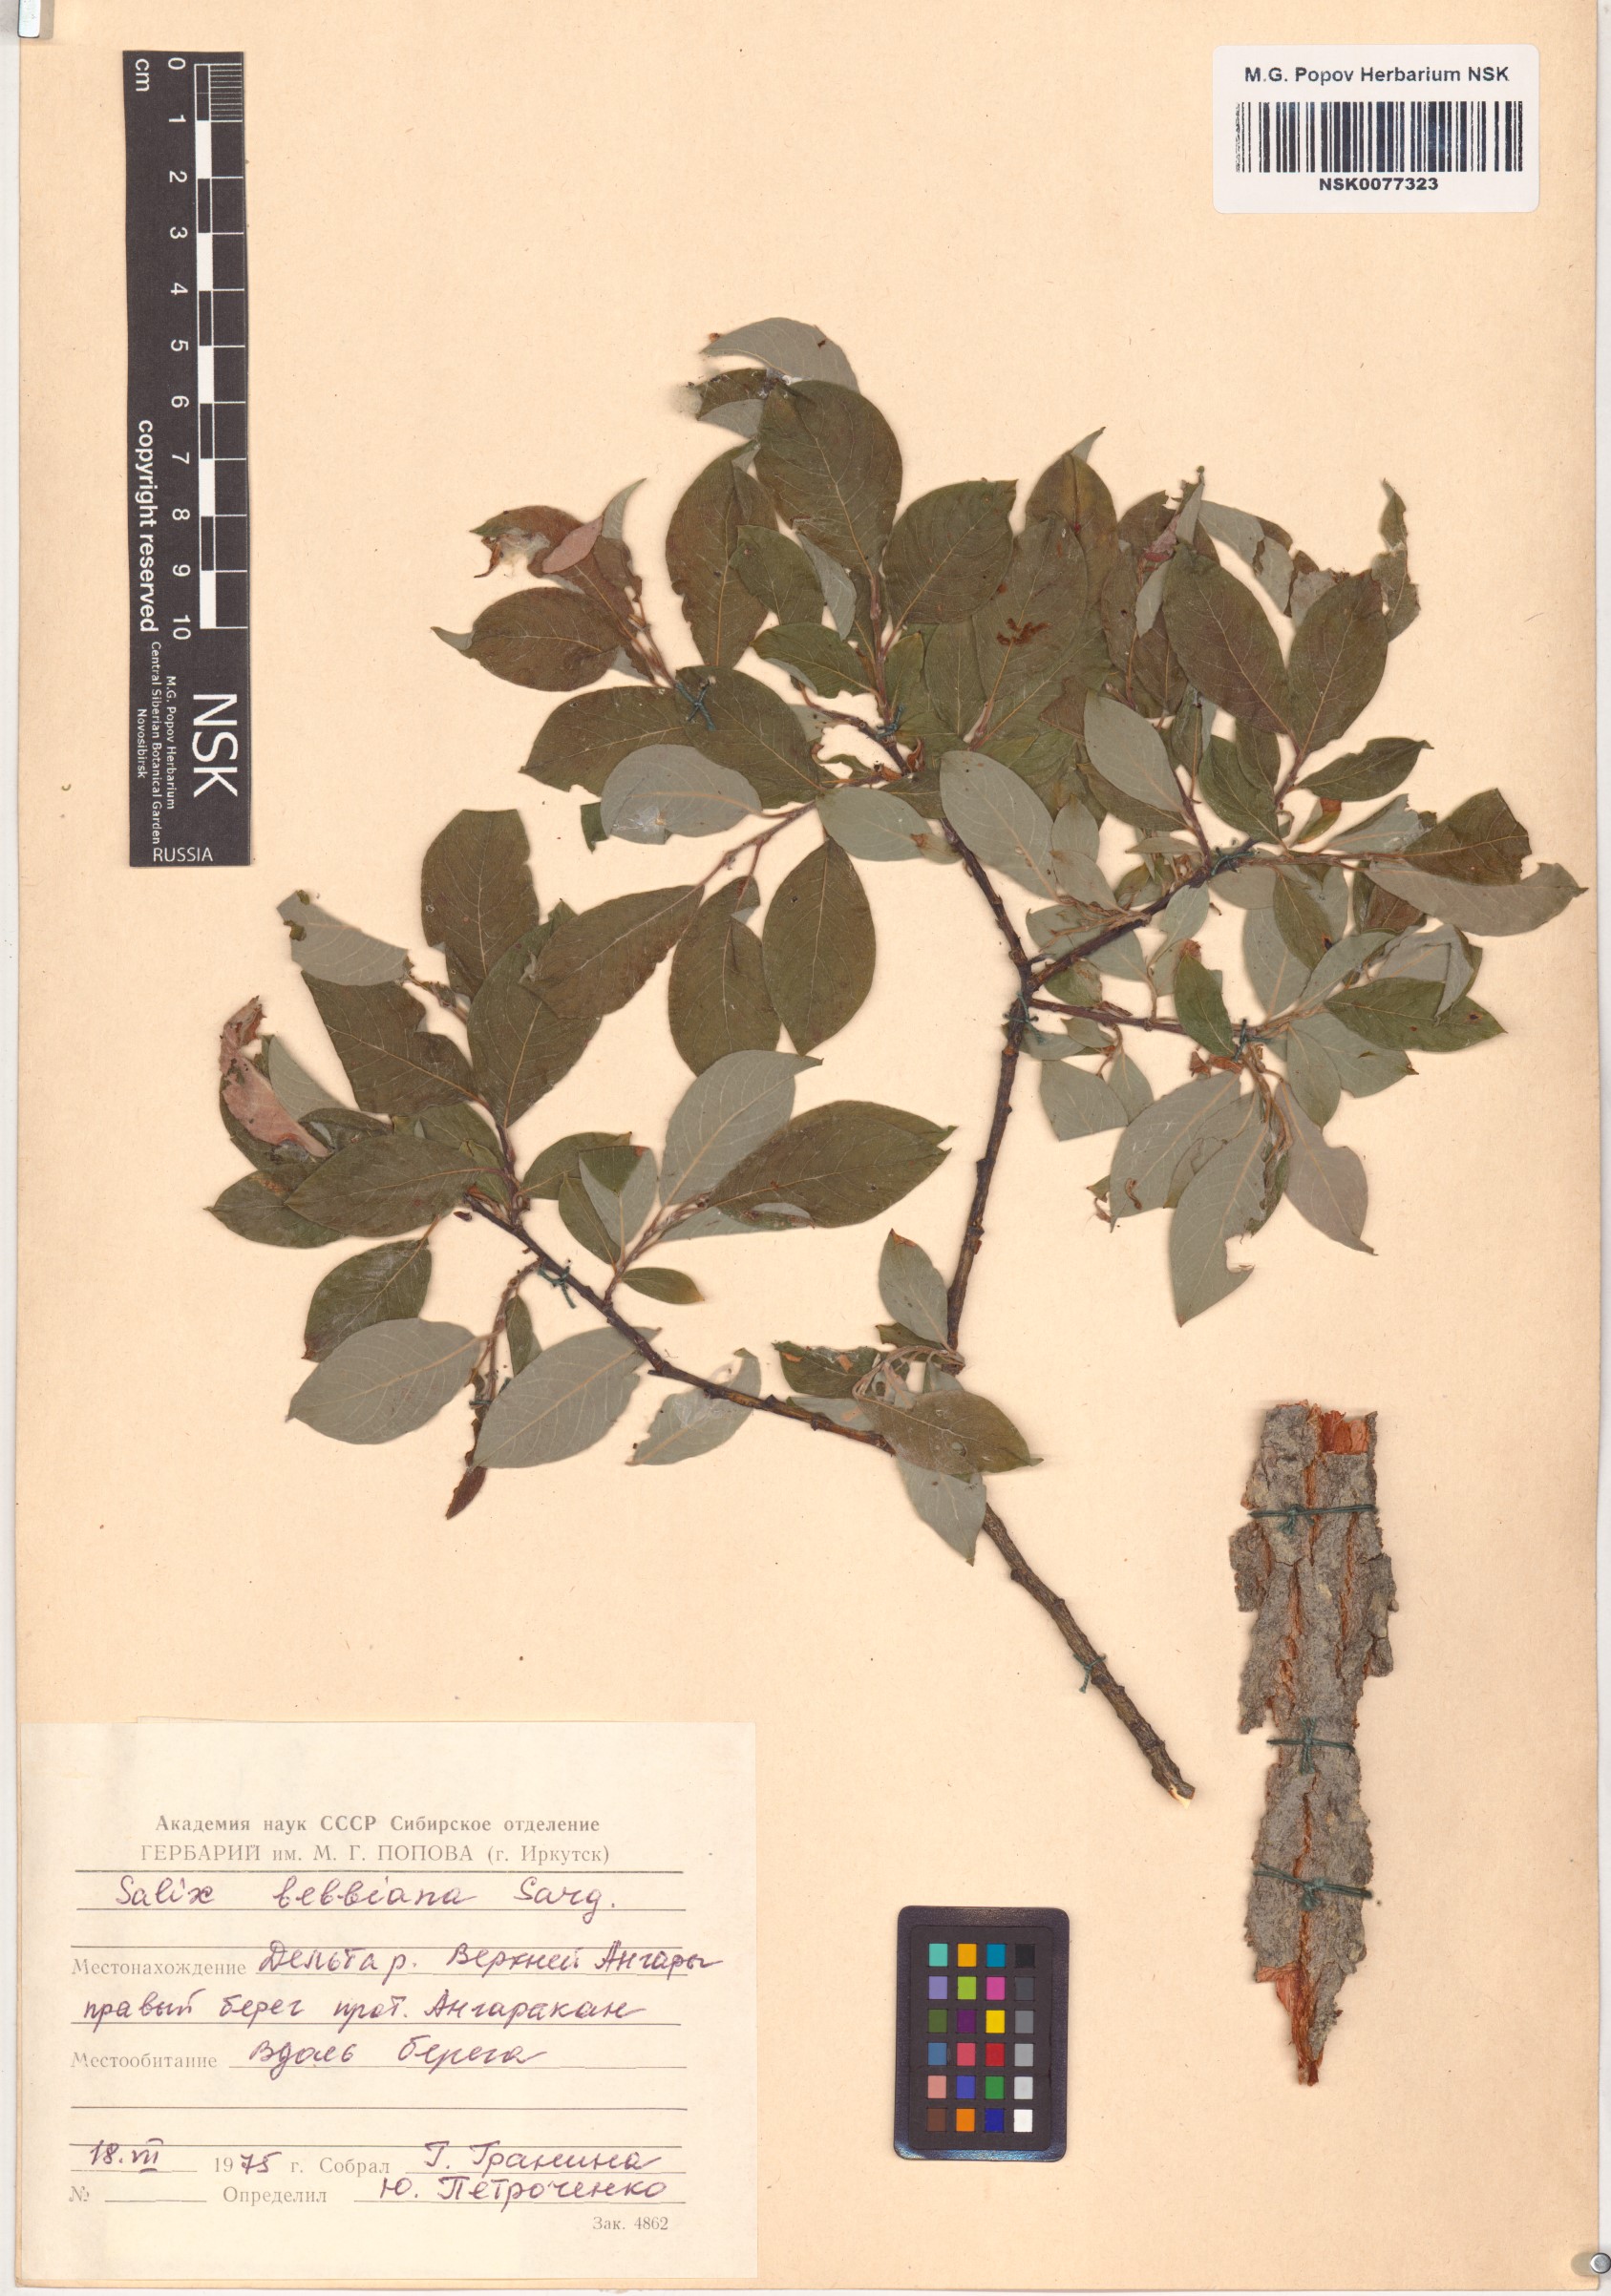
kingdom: Plantae
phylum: Tracheophyta
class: Magnoliopsida
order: Malpighiales
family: Salicaceae
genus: Salix
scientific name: Salix bebbiana
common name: Bebb's willow
